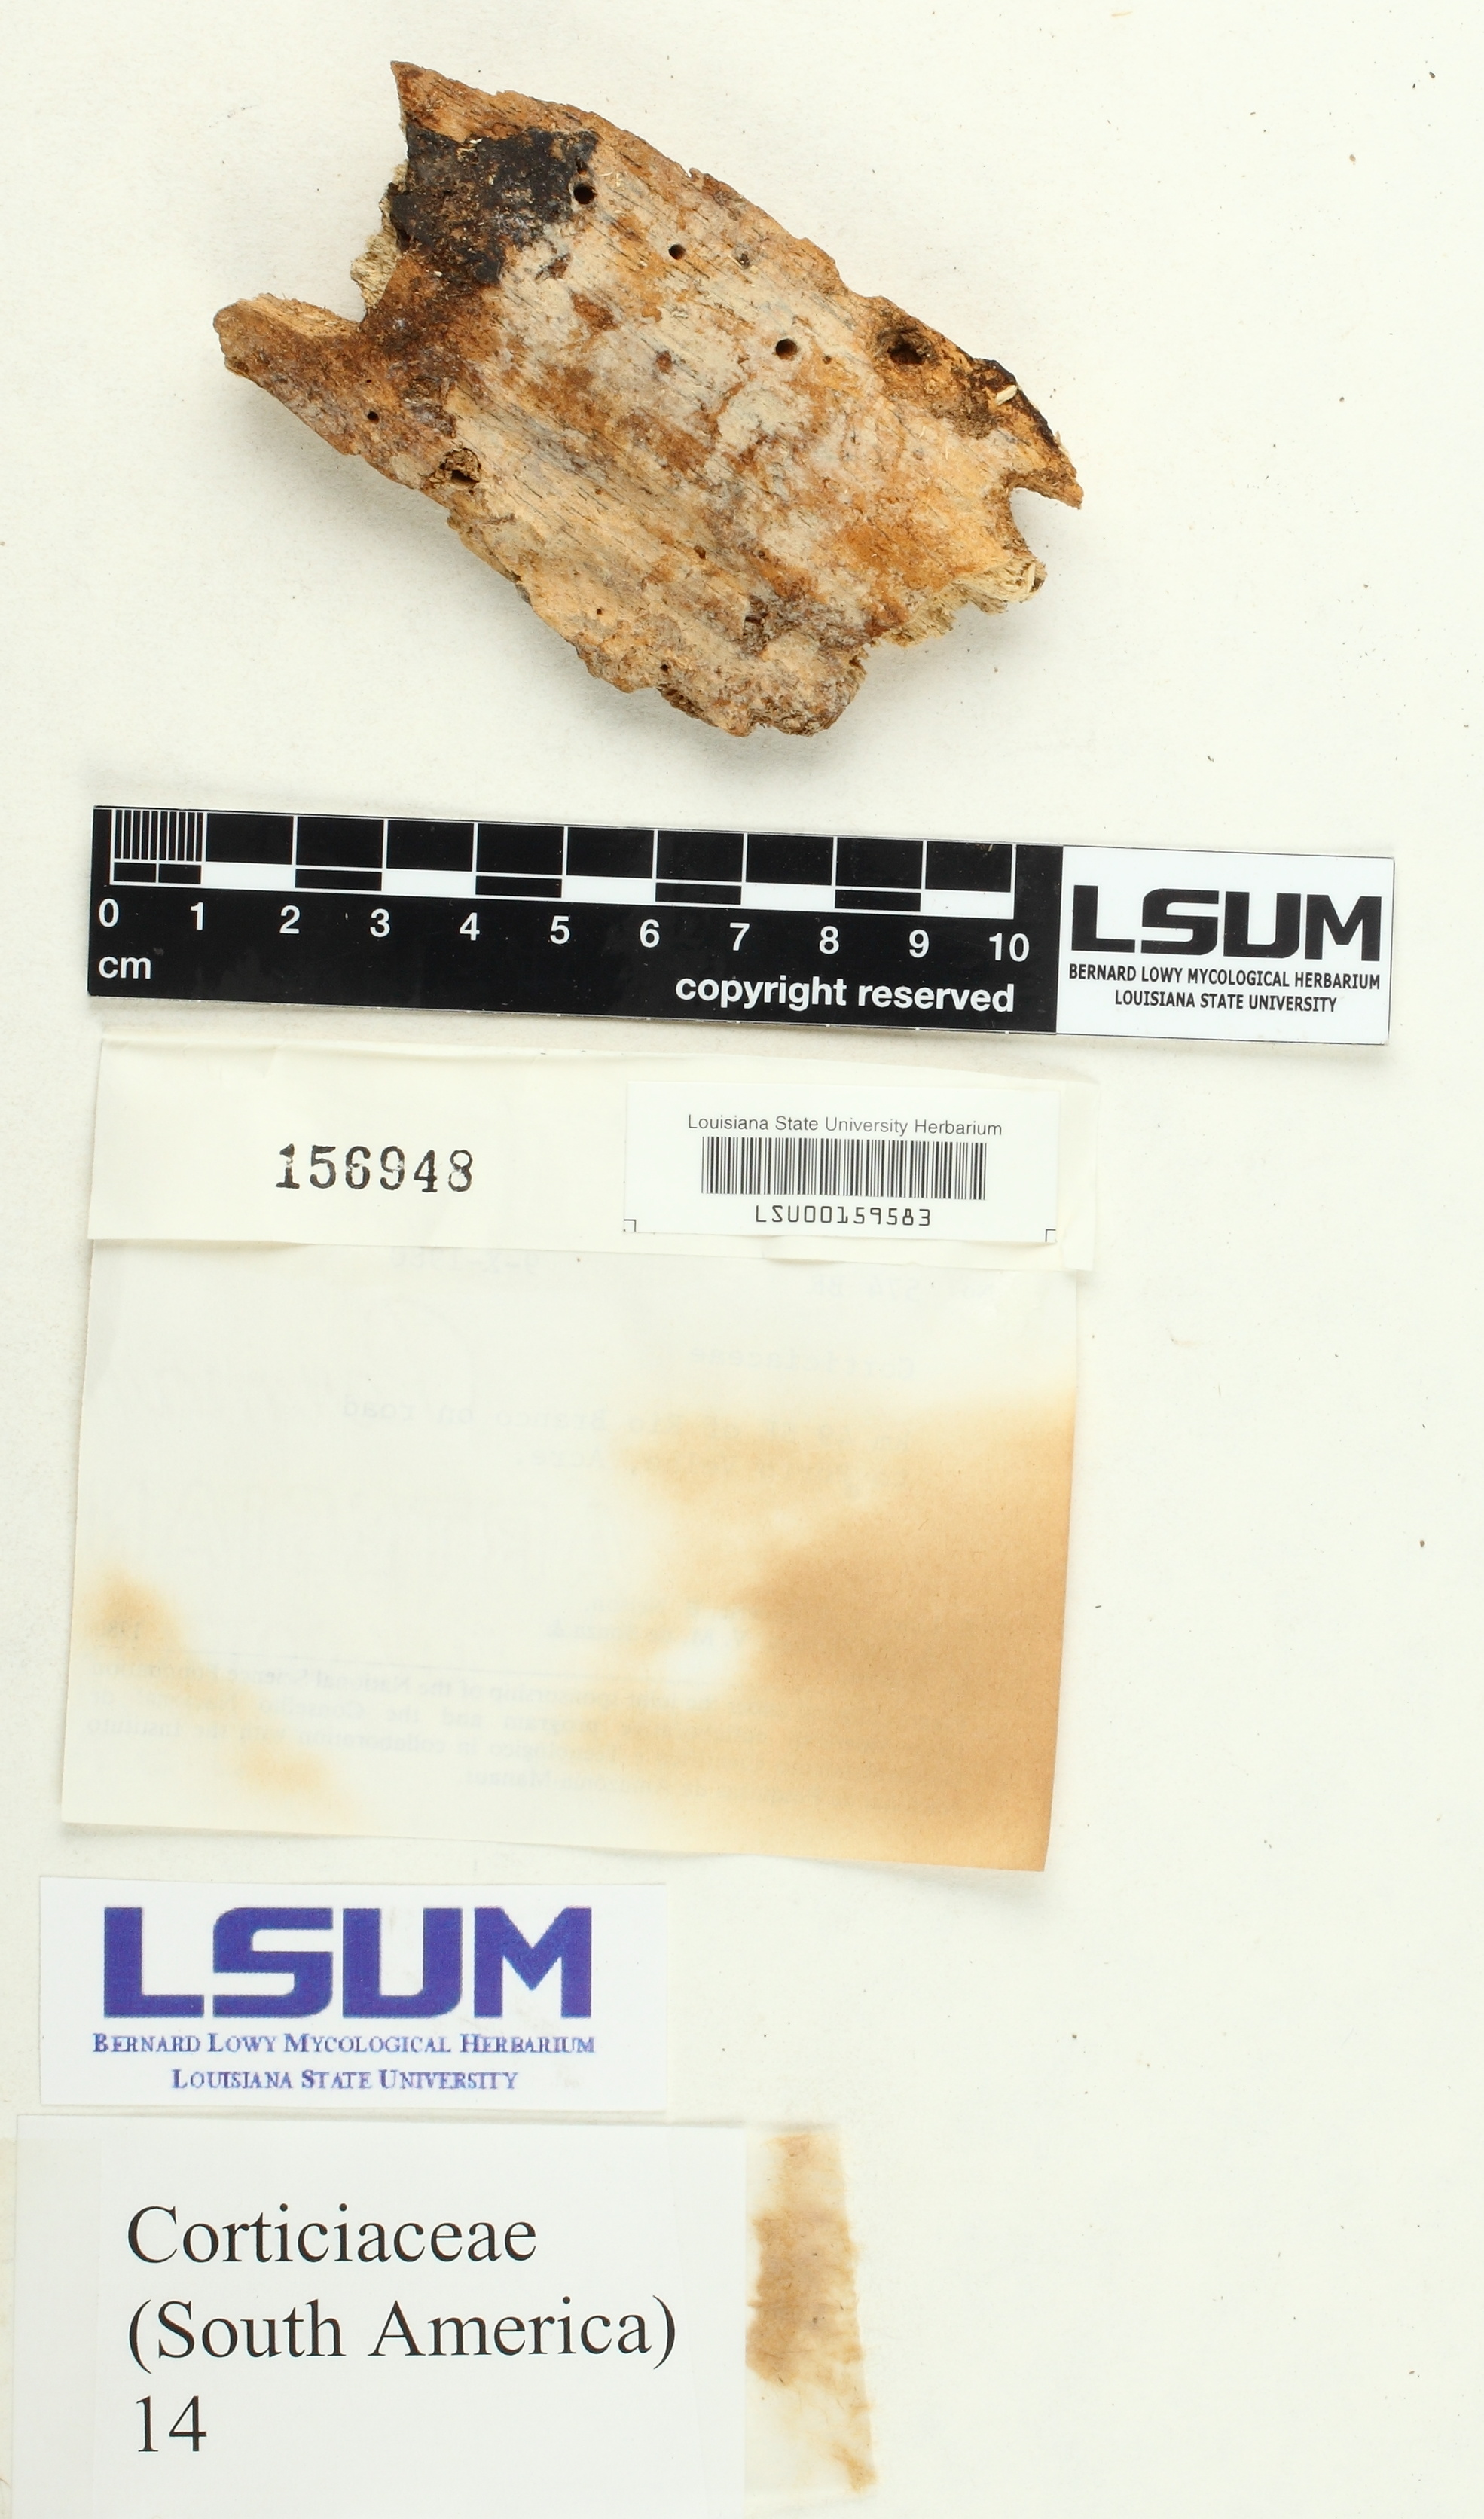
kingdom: Fungi
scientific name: Fungi
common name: Fungi
